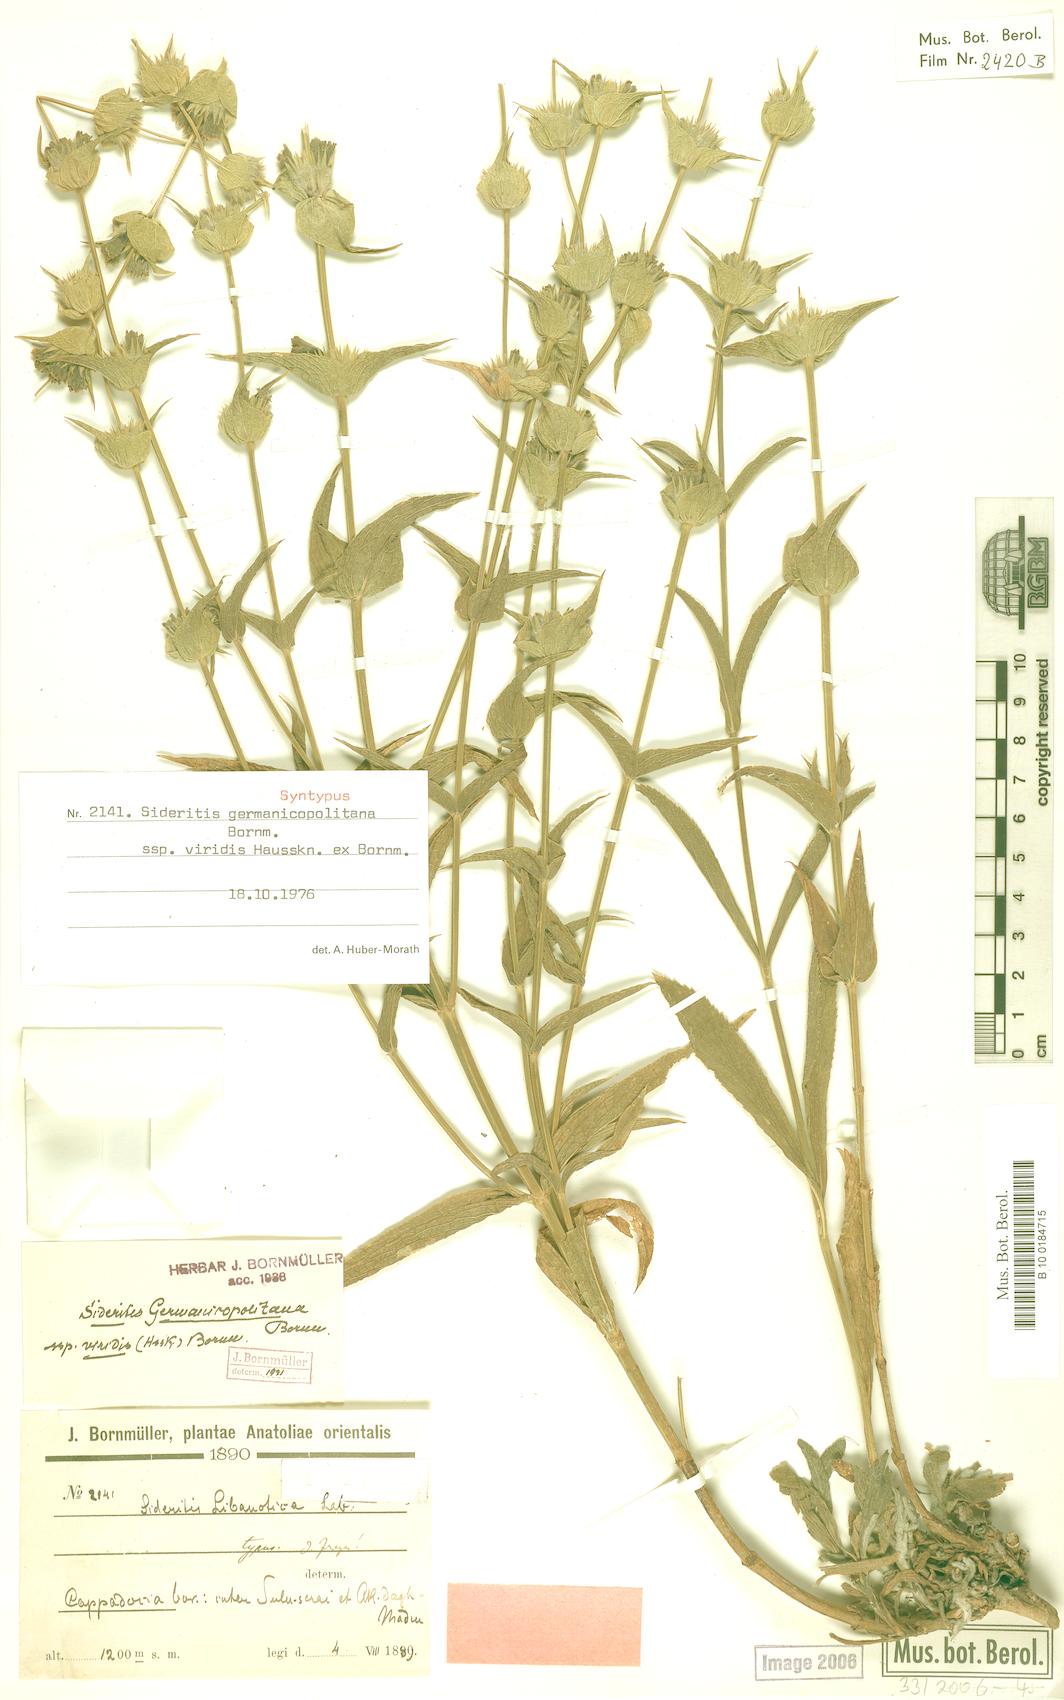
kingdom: Plantae
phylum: Tracheophyta
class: Magnoliopsida
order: Lamiales
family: Lamiaceae
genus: Sideritis
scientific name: Sideritis germanicopolitana
